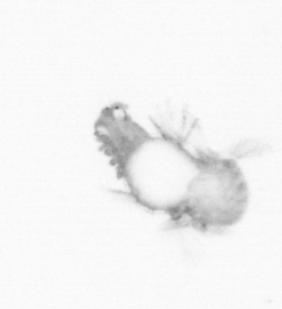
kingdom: Animalia
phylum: Annelida
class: Polychaeta
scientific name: Polychaeta
